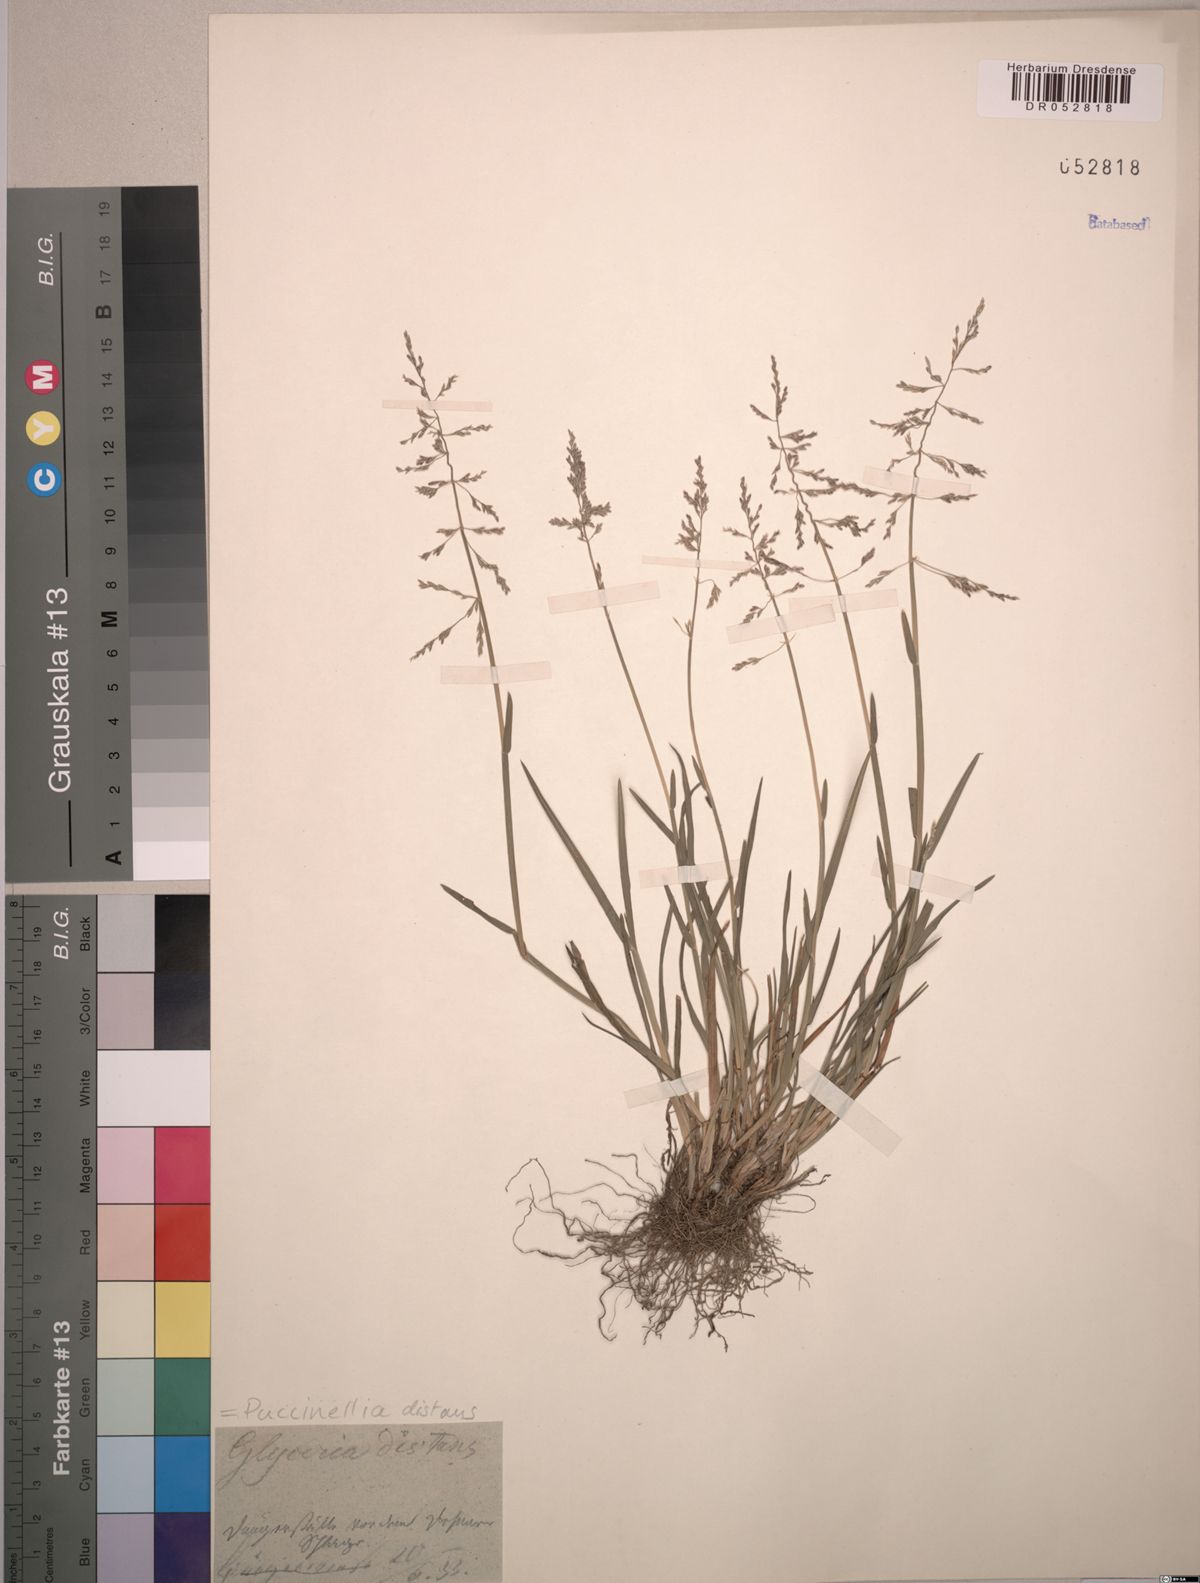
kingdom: Plantae
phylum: Tracheophyta
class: Liliopsida
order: Poales
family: Poaceae
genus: Puccinellia
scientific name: Puccinellia distans
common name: Weeping alkaligrass
